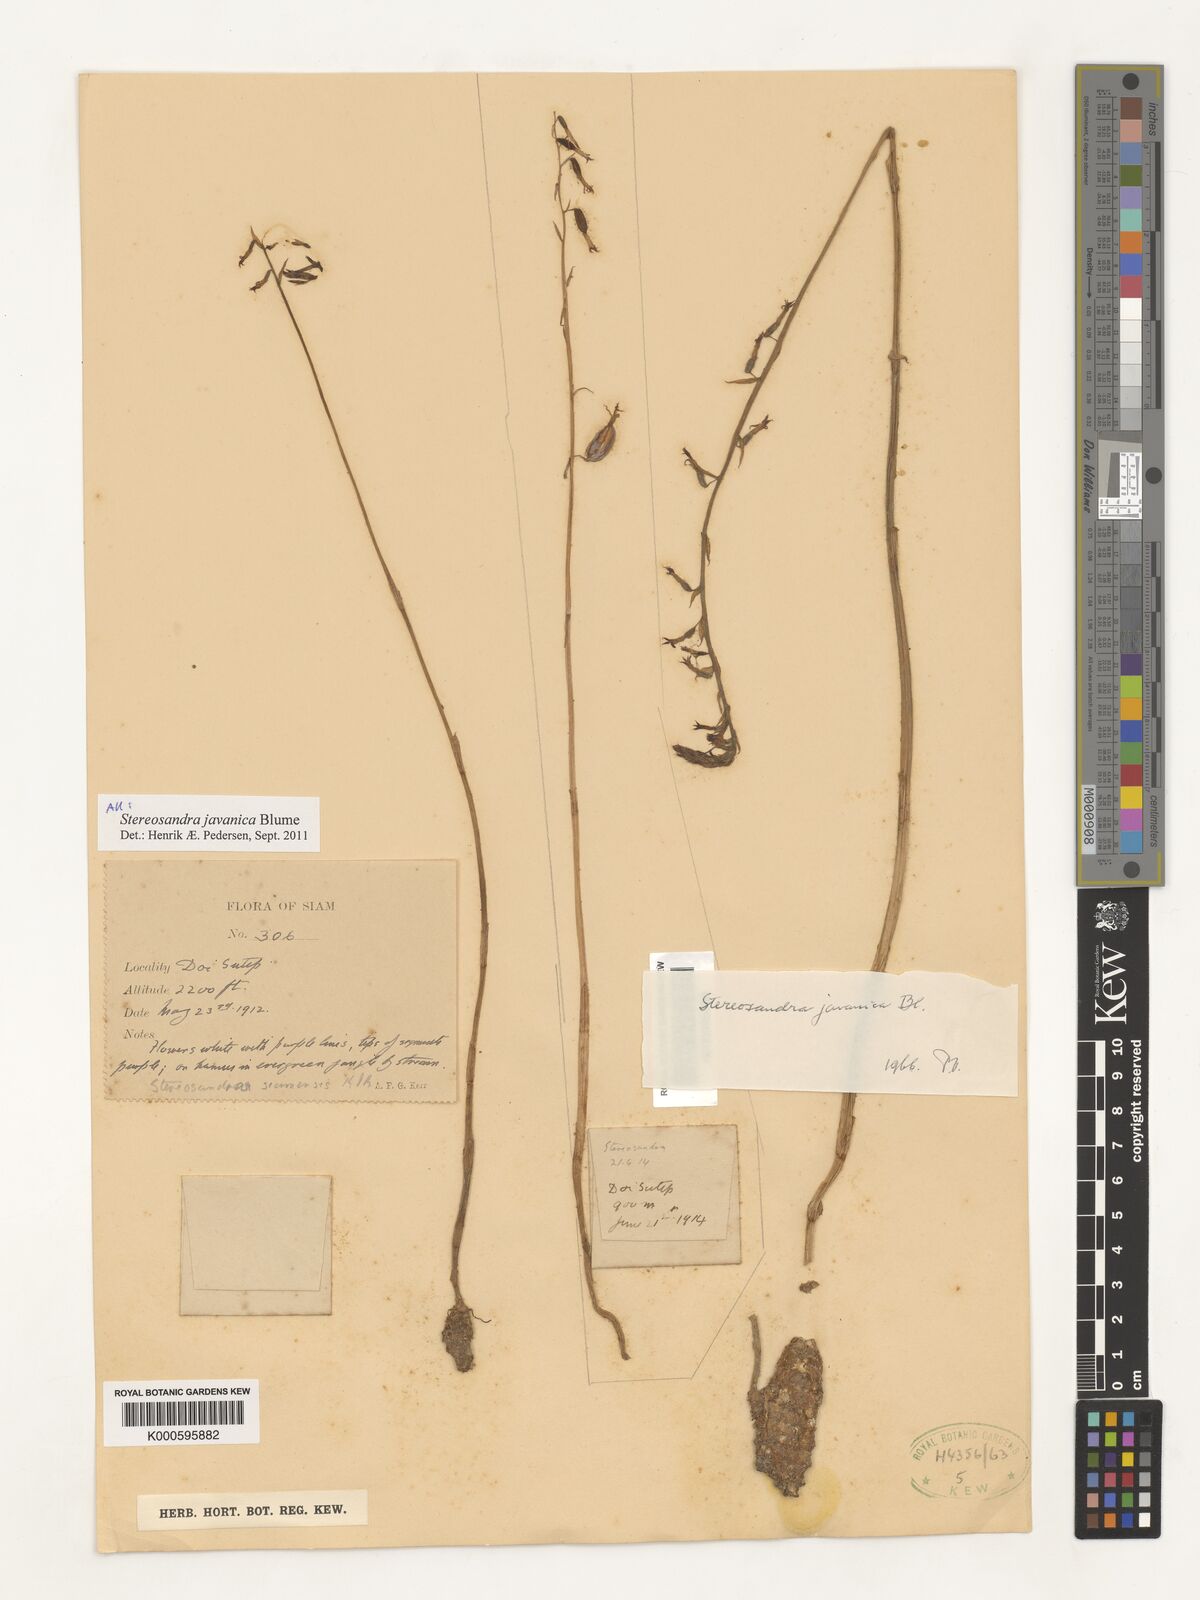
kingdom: Plantae
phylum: Tracheophyta
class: Liliopsida
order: Asparagales
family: Orchidaceae
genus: Stereosandra
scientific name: Stereosandra javanica
